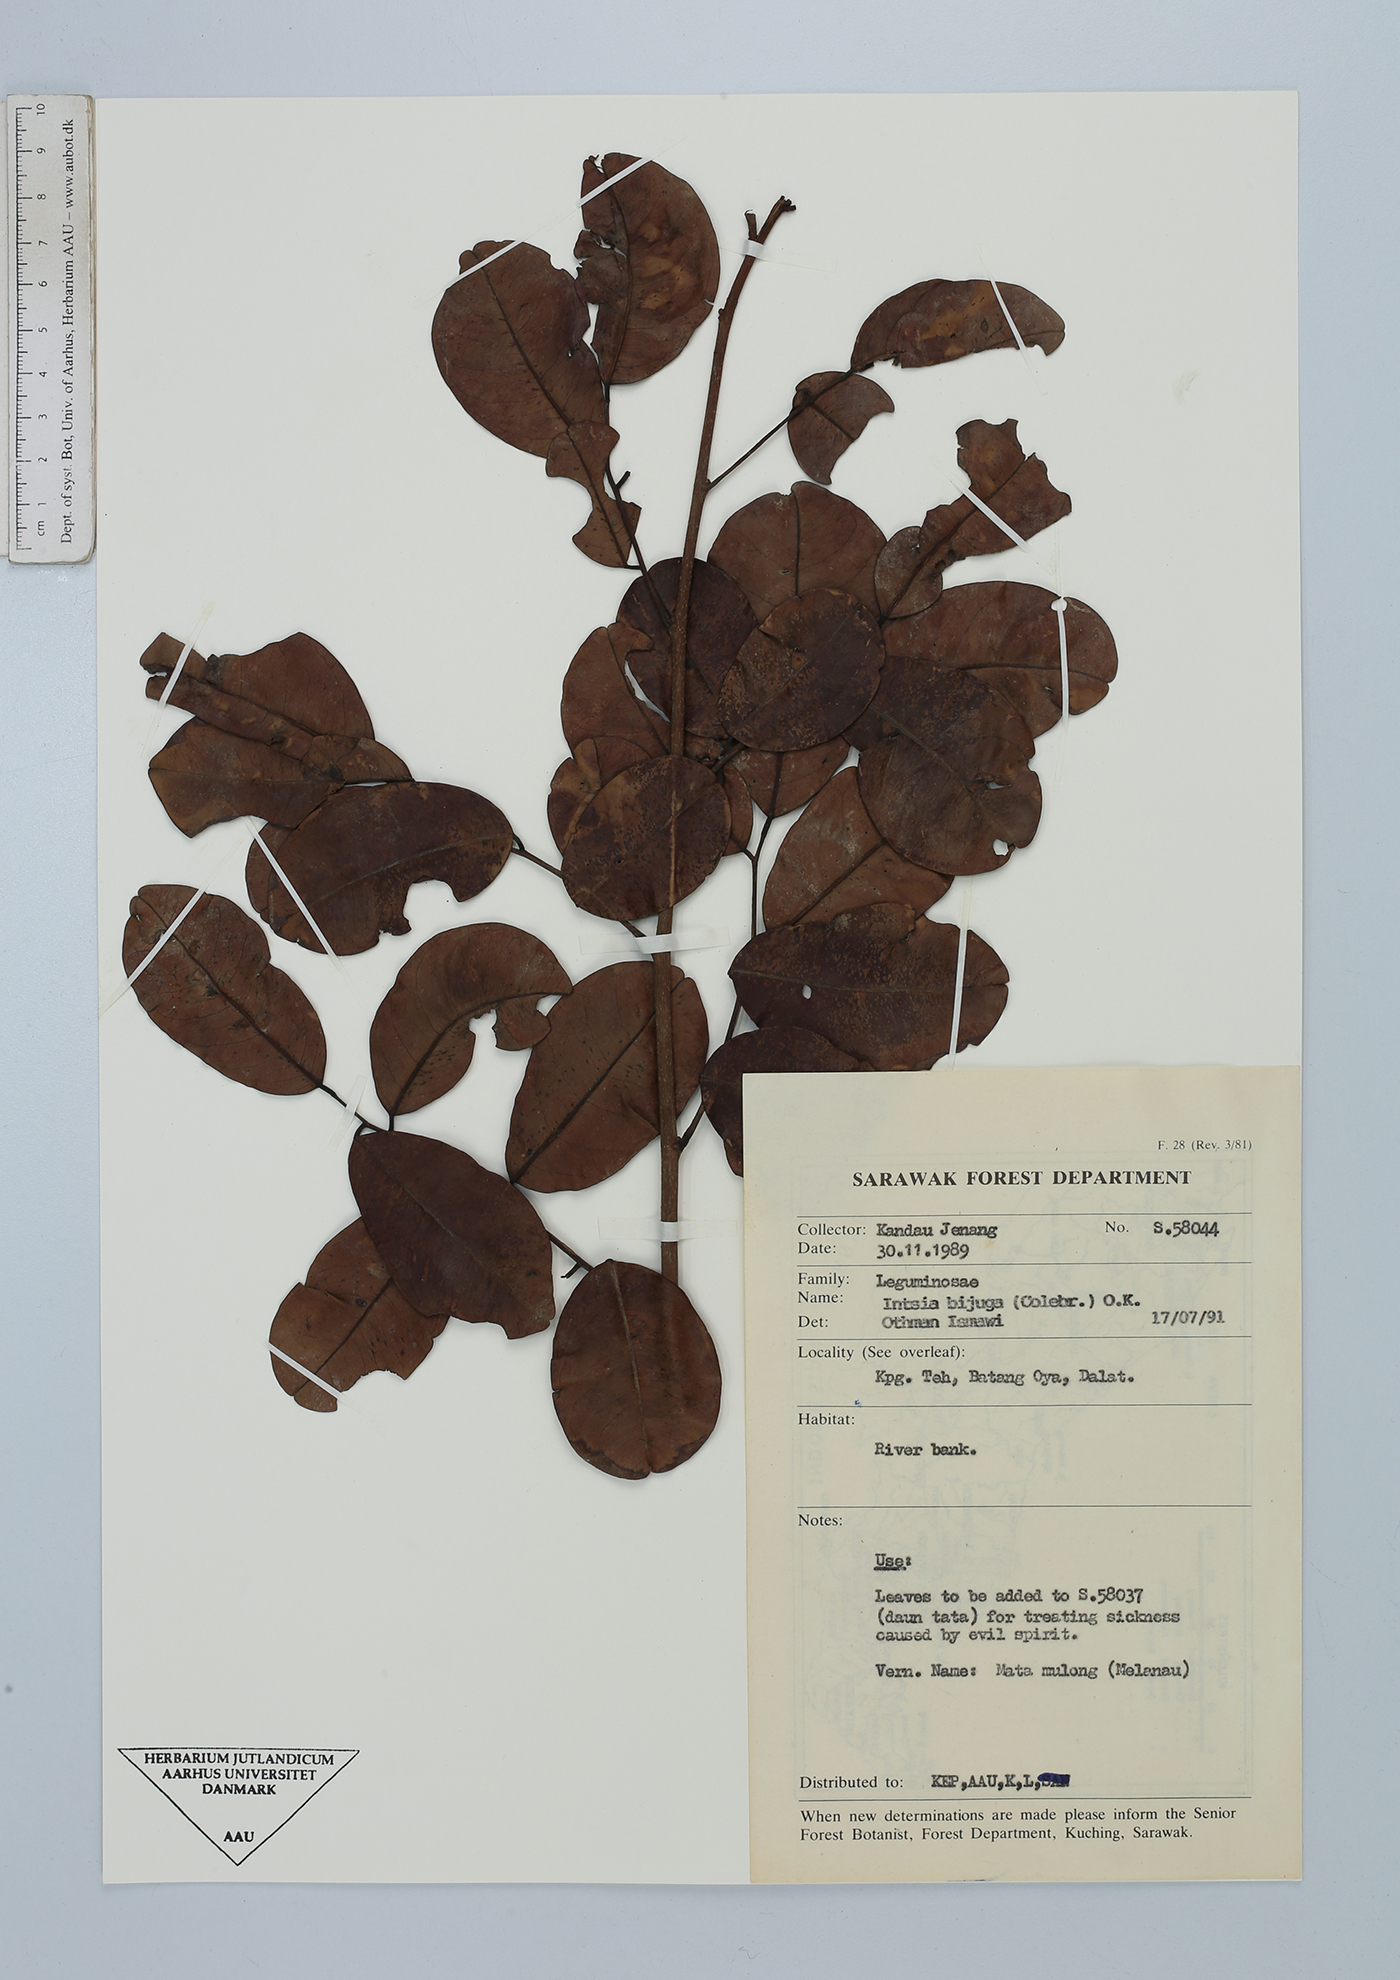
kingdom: Plantae
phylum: Tracheophyta
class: Magnoliopsida
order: Fabales
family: Fabaceae
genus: Intsia
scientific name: Intsia bijuga
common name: Moluccan ironwood
